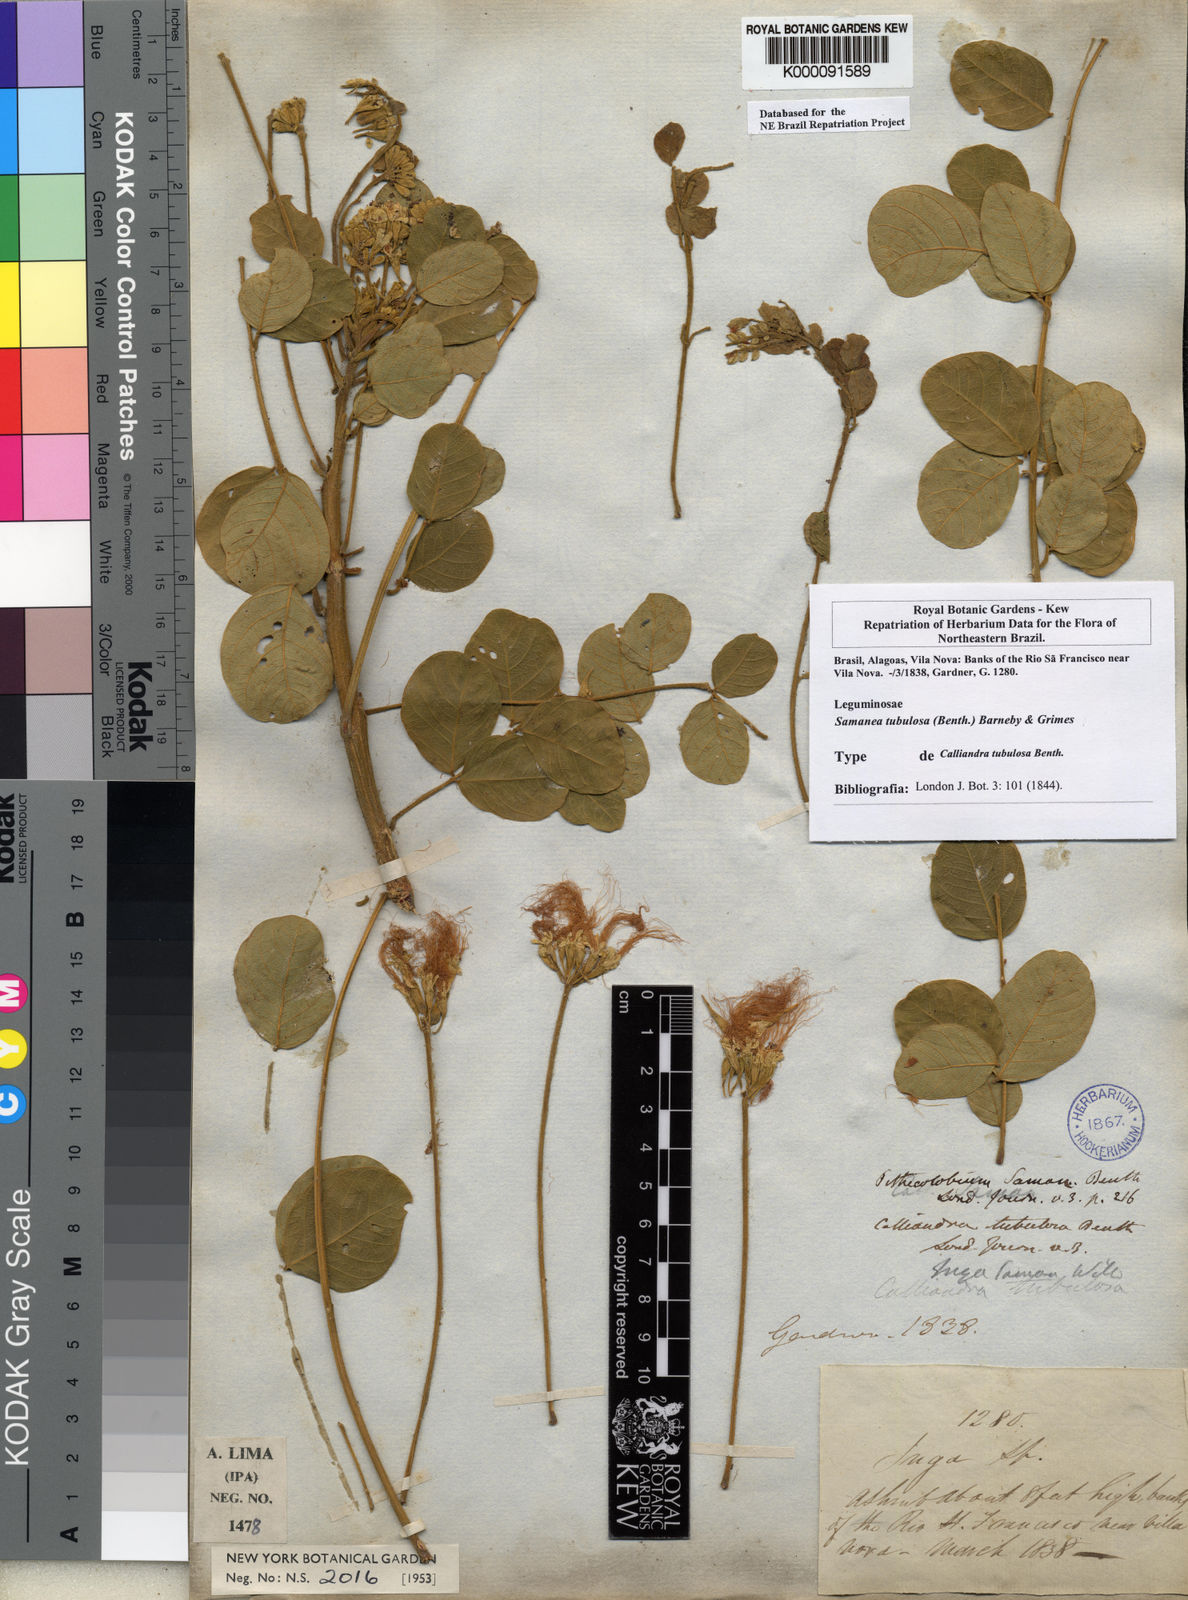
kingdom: Plantae
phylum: Tracheophyta
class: Magnoliopsida
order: Fabales
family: Fabaceae
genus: Samanea
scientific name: Samanea tubulosa
